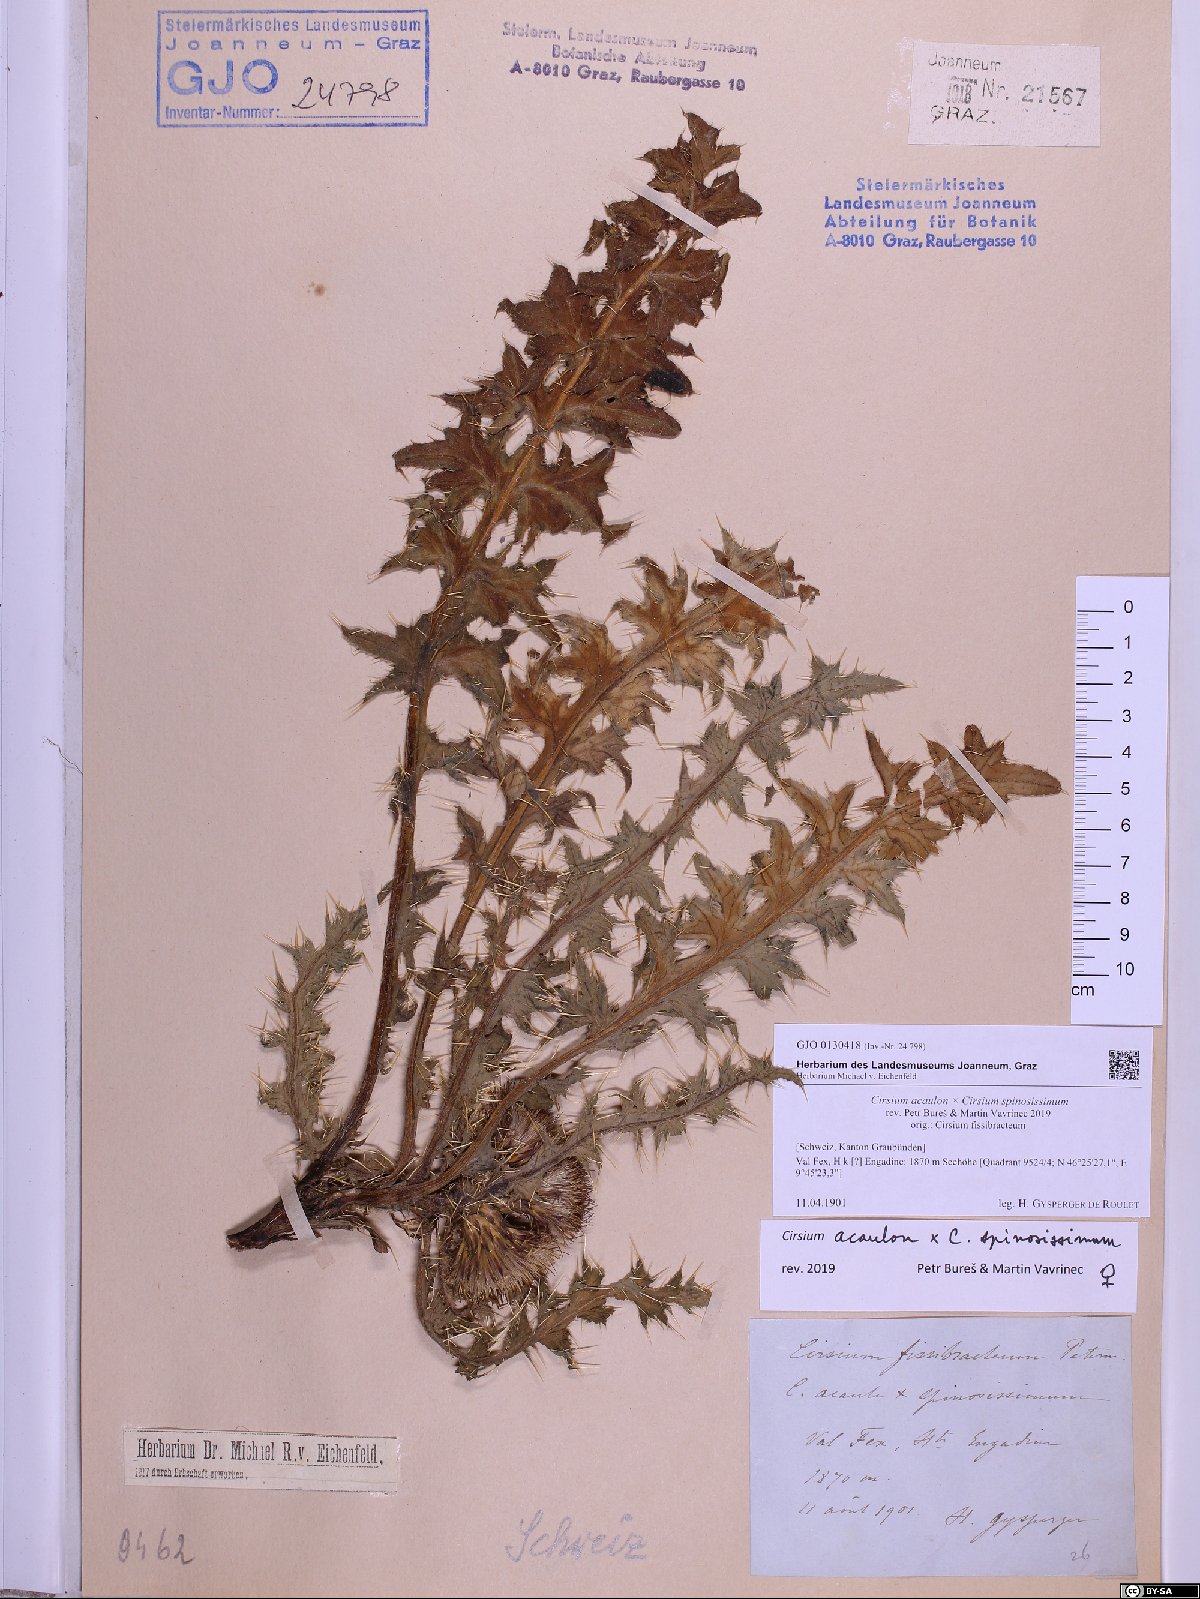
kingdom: Plantae
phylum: Tracheophyta
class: Magnoliopsida
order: Asterales
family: Asteraceae
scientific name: Asteraceae
